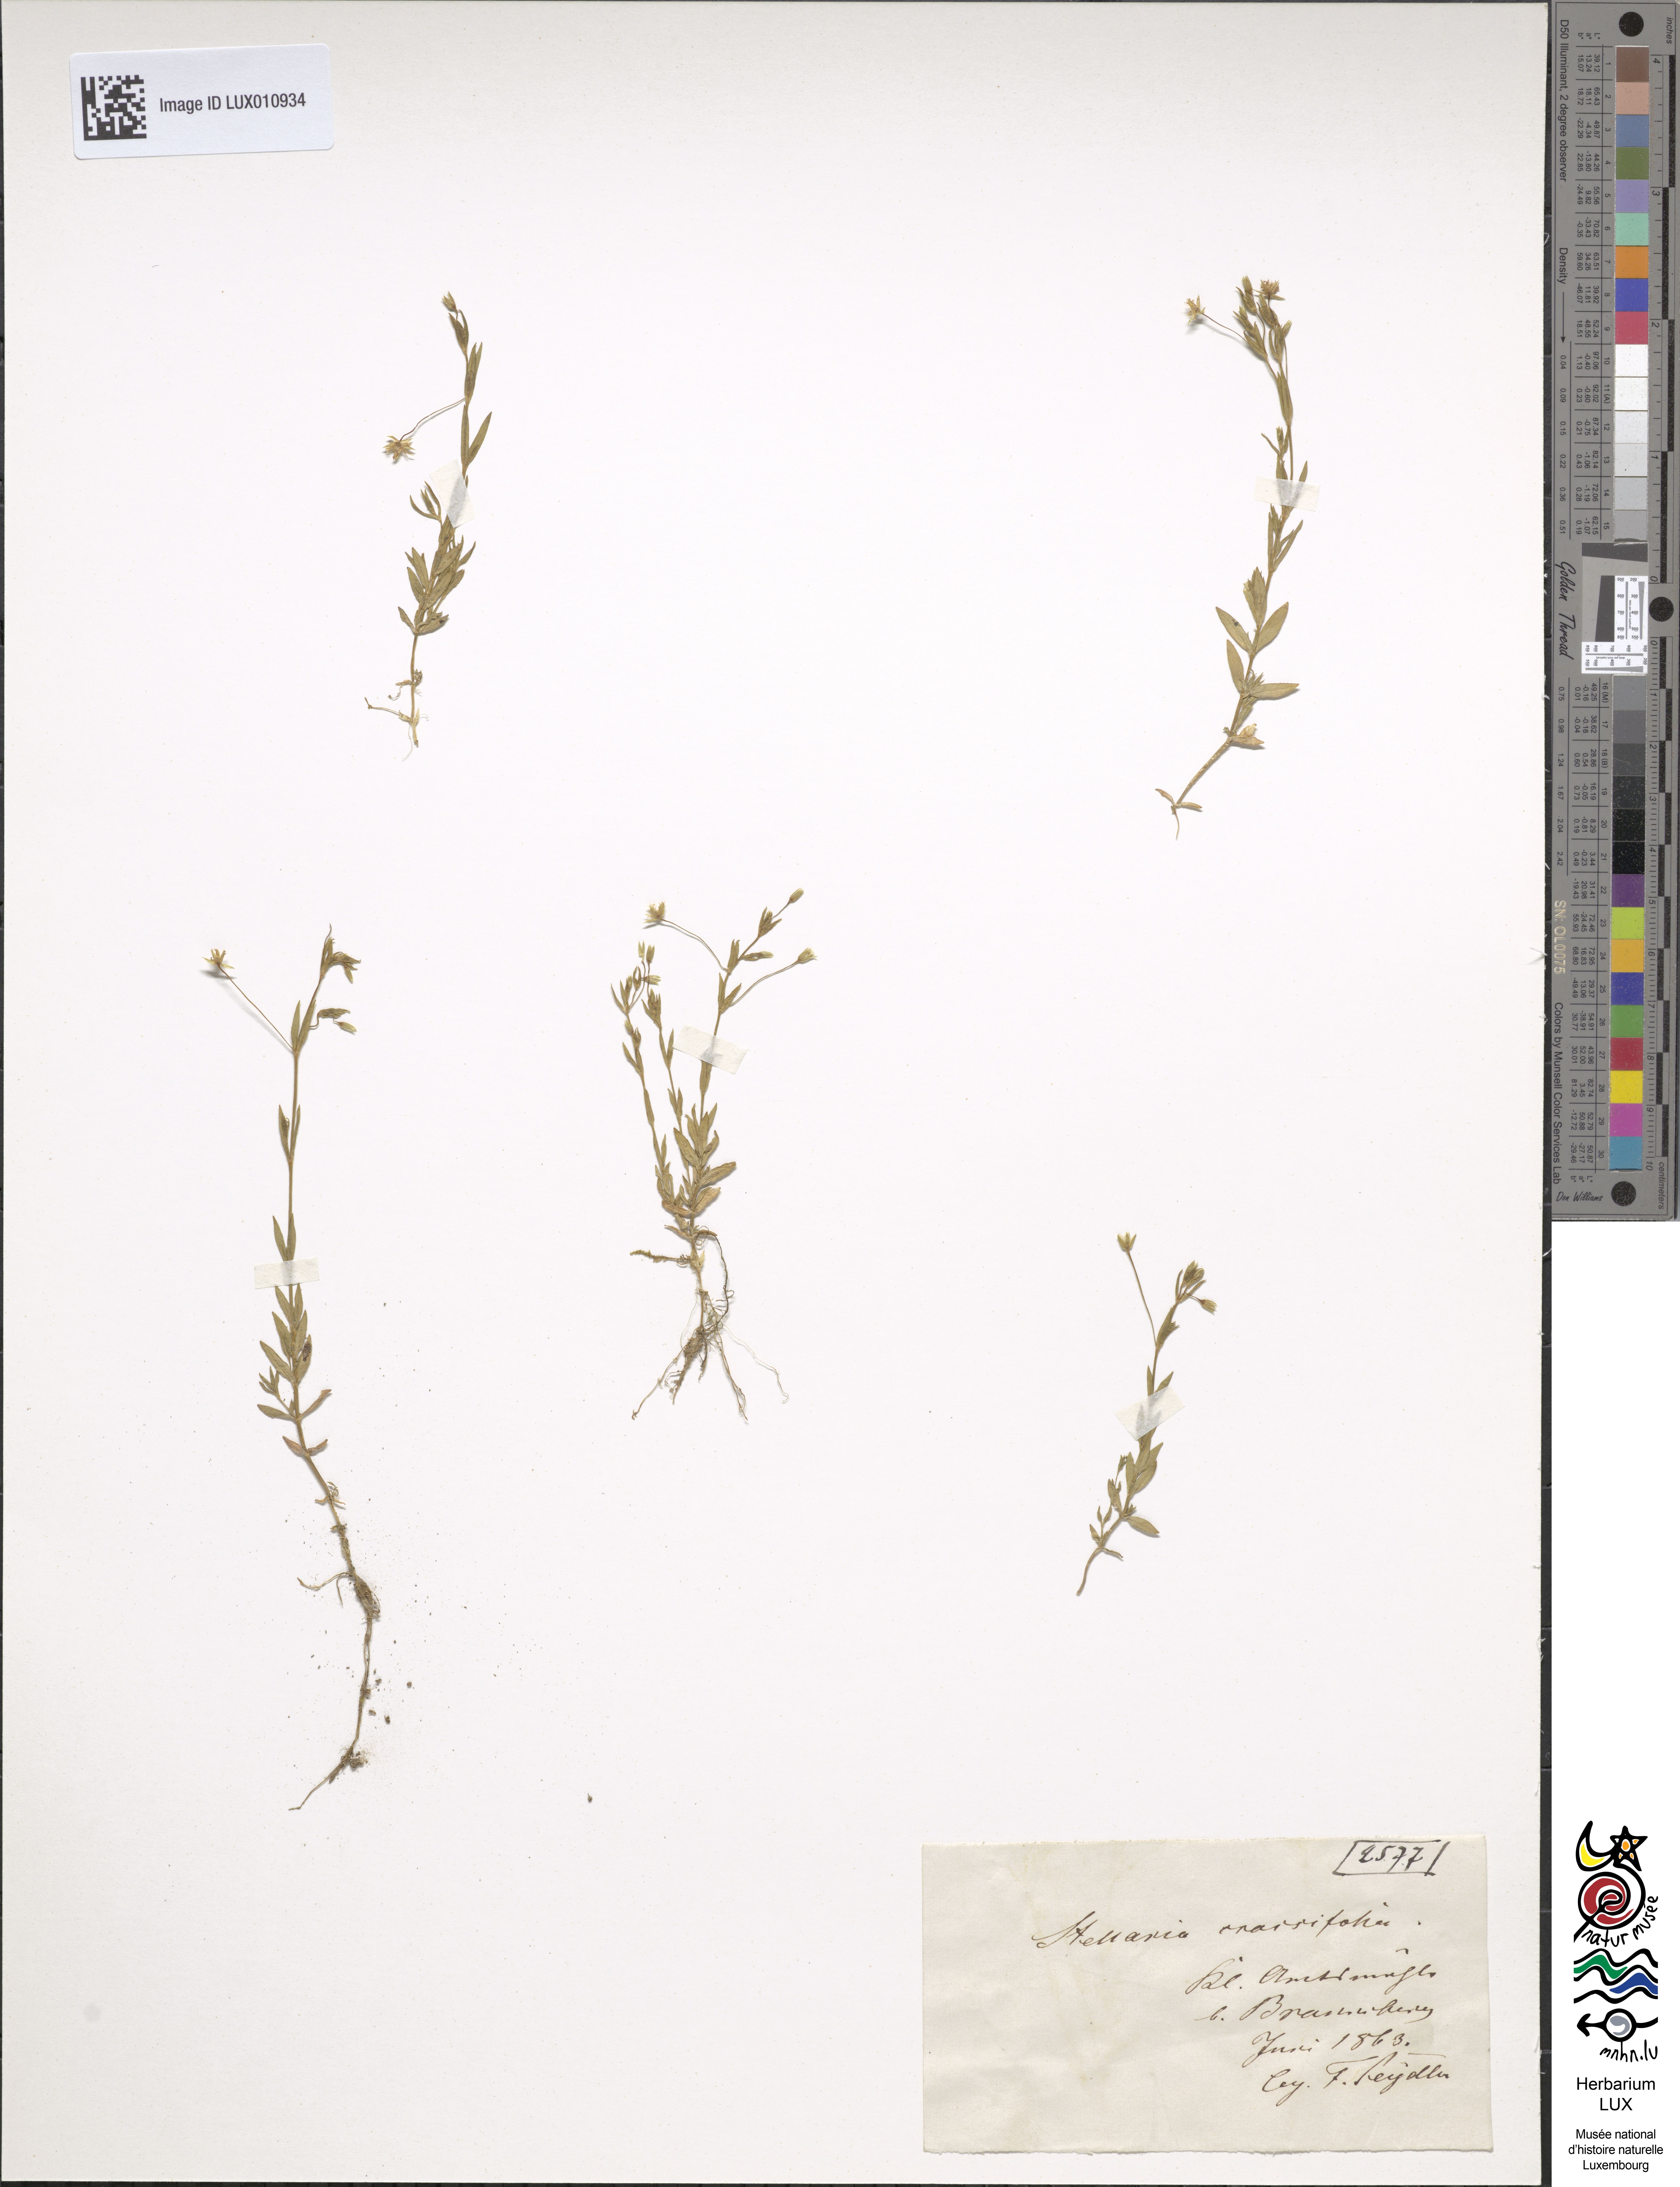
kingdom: Plantae
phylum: Tracheophyta
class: Magnoliopsida
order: Caryophyllales
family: Caryophyllaceae
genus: Stellaria
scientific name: Stellaria crassifolia
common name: Fleshy starwort
